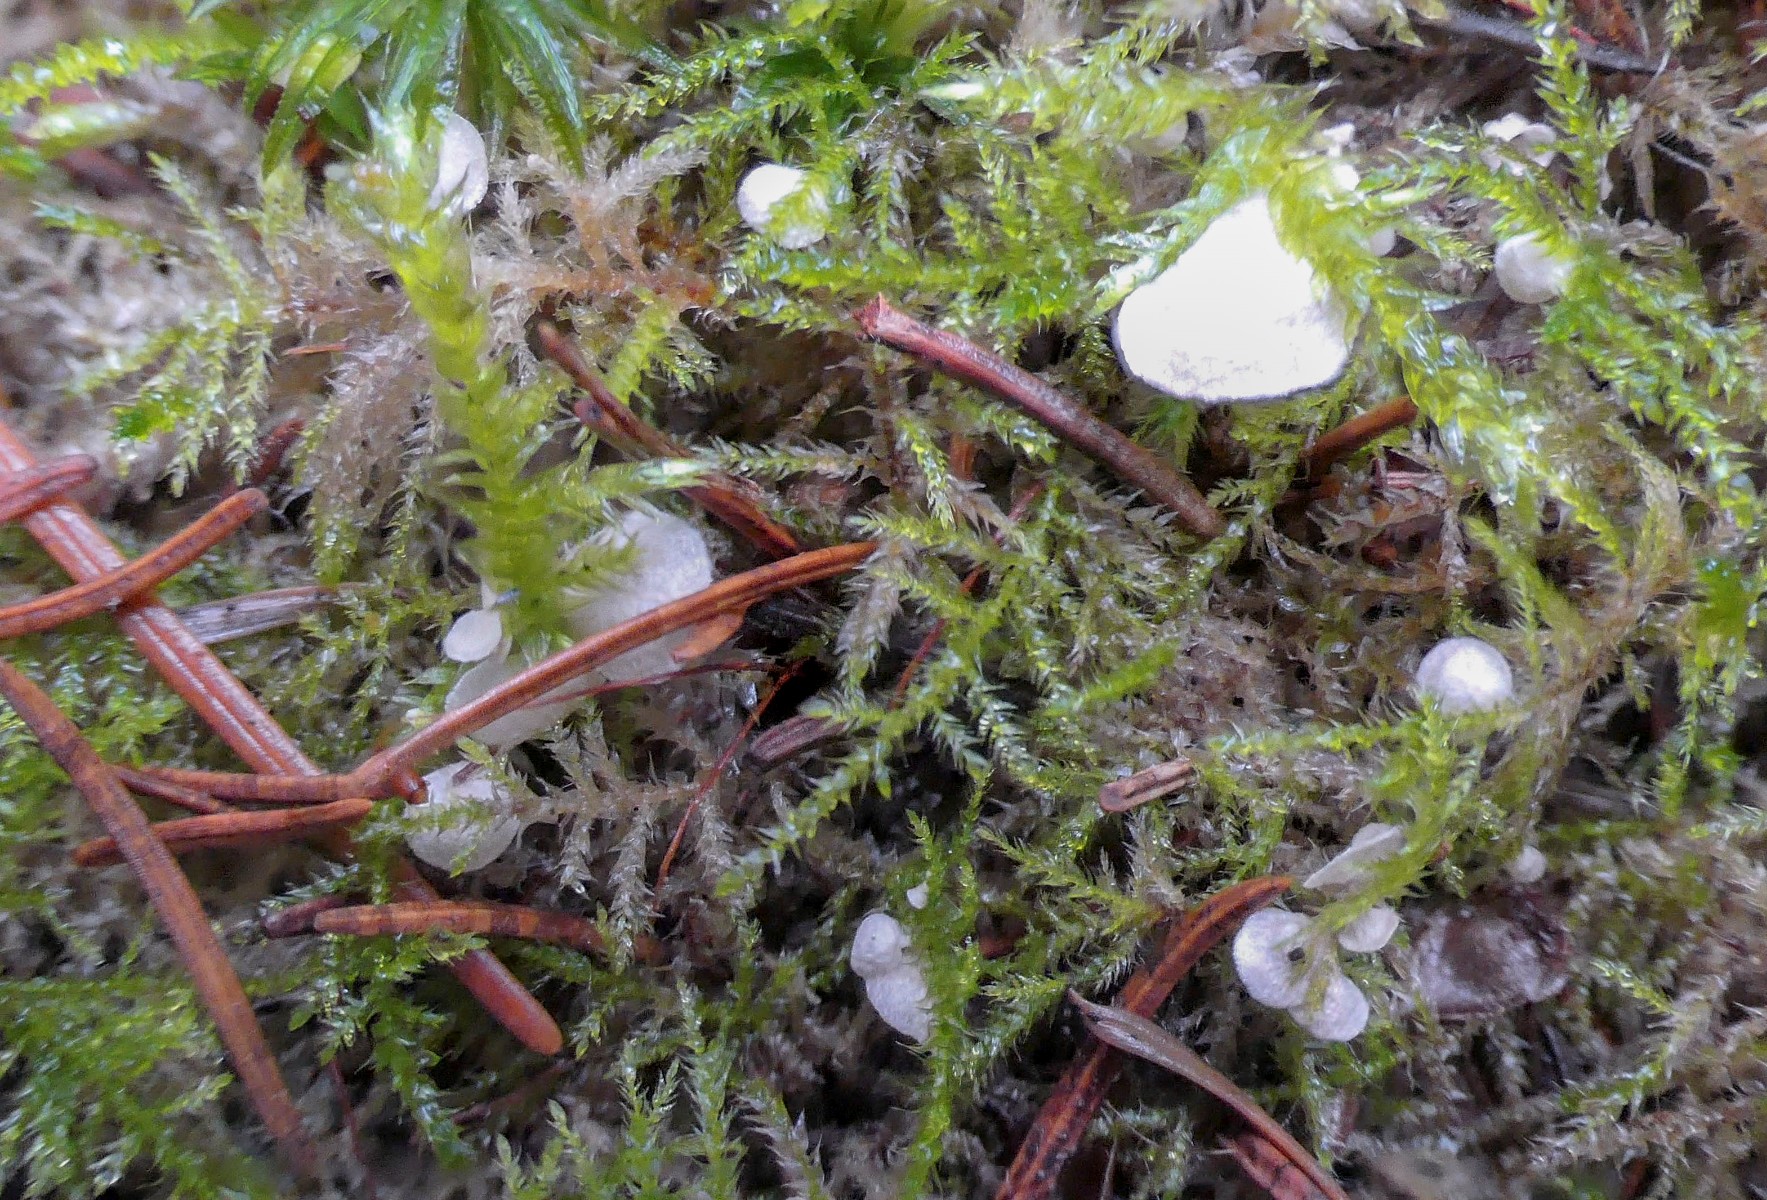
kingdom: Fungi
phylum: Basidiomycota
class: Agaricomycetes
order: Agaricales
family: Hygrophoraceae
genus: Arrhenia
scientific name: Arrhenia retiruga
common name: lille fontænehat
